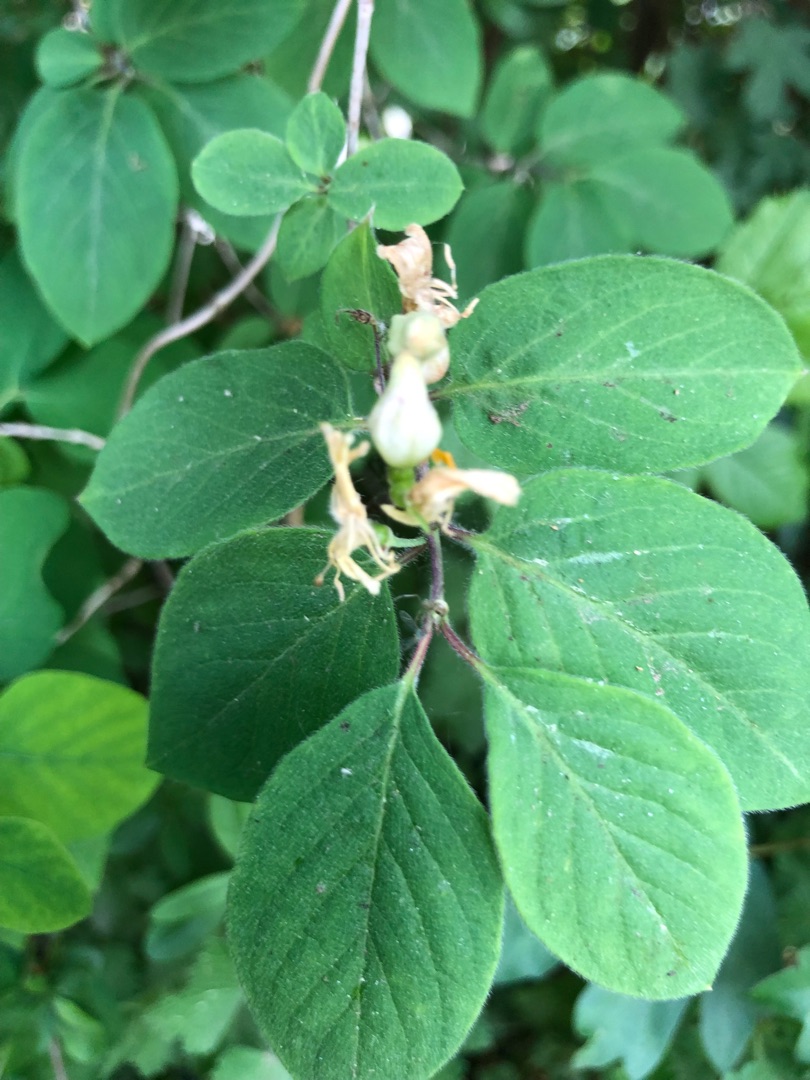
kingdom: Plantae
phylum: Tracheophyta
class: Magnoliopsida
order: Dipsacales
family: Caprifoliaceae
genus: Lonicera
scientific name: Lonicera xylosteum
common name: Dunet gedeblad
